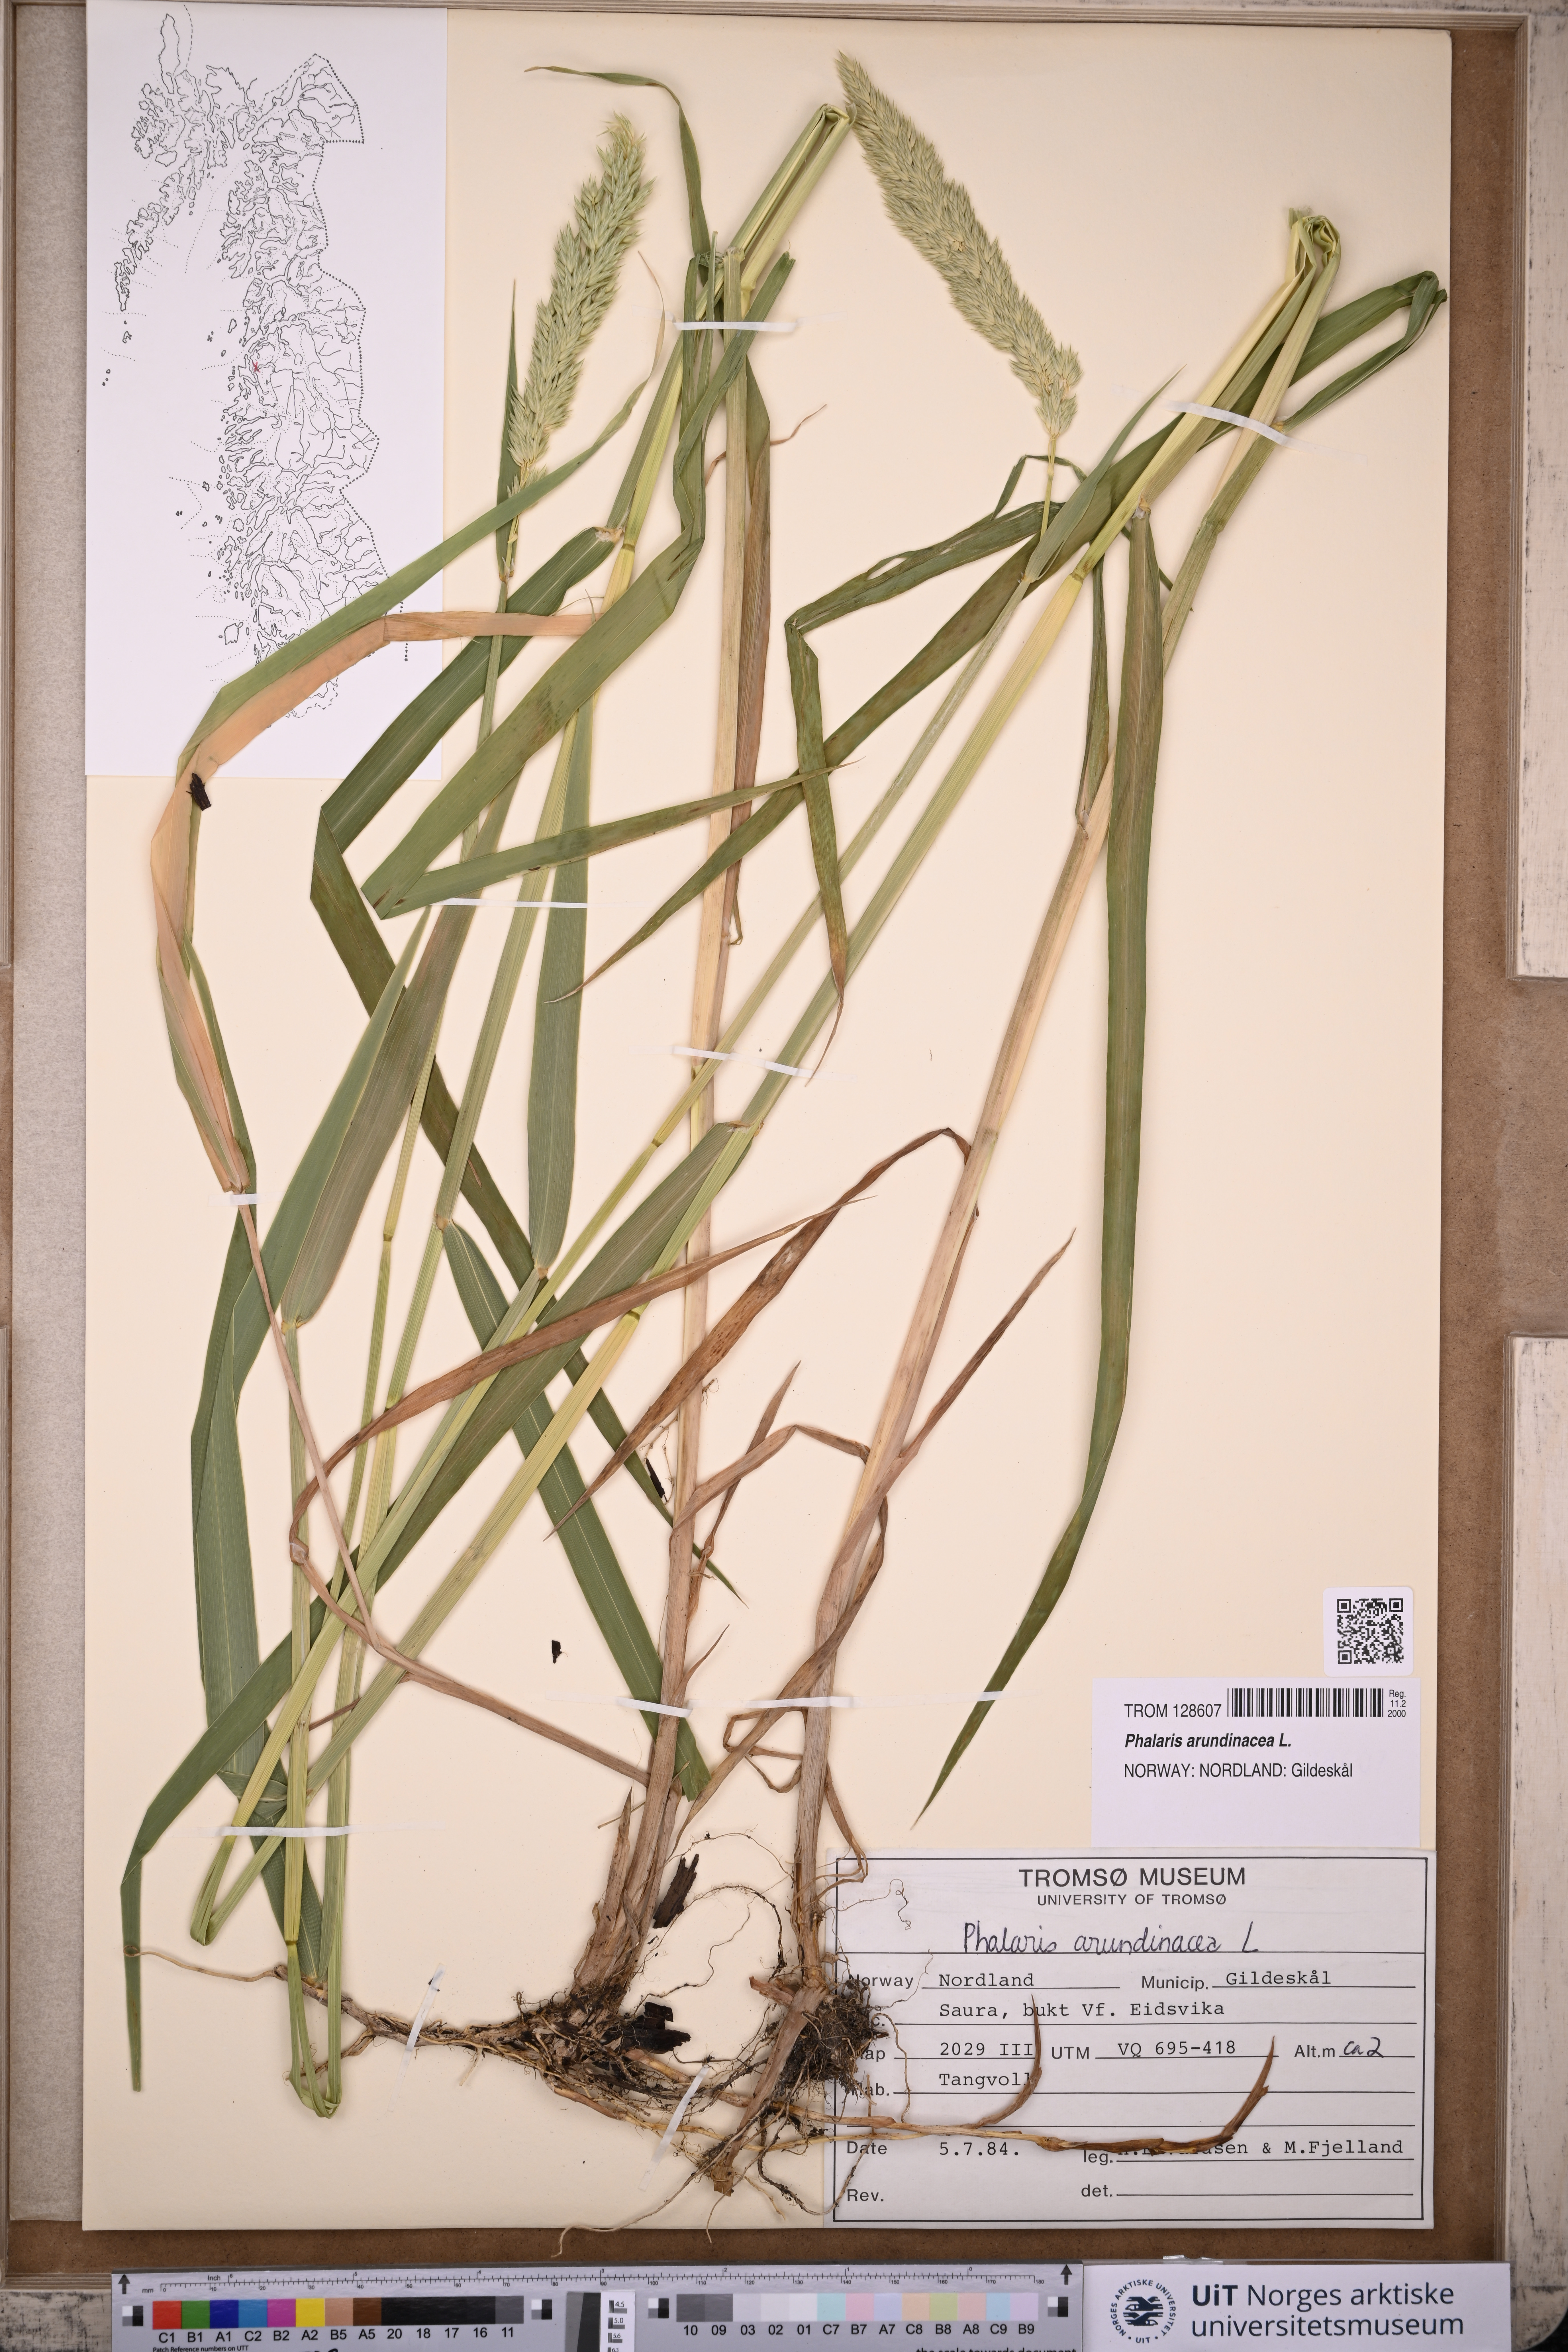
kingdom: Plantae
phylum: Tracheophyta
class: Liliopsida
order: Poales
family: Poaceae
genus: Phalaris
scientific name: Phalaris arundinacea
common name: Reed canary-grass
